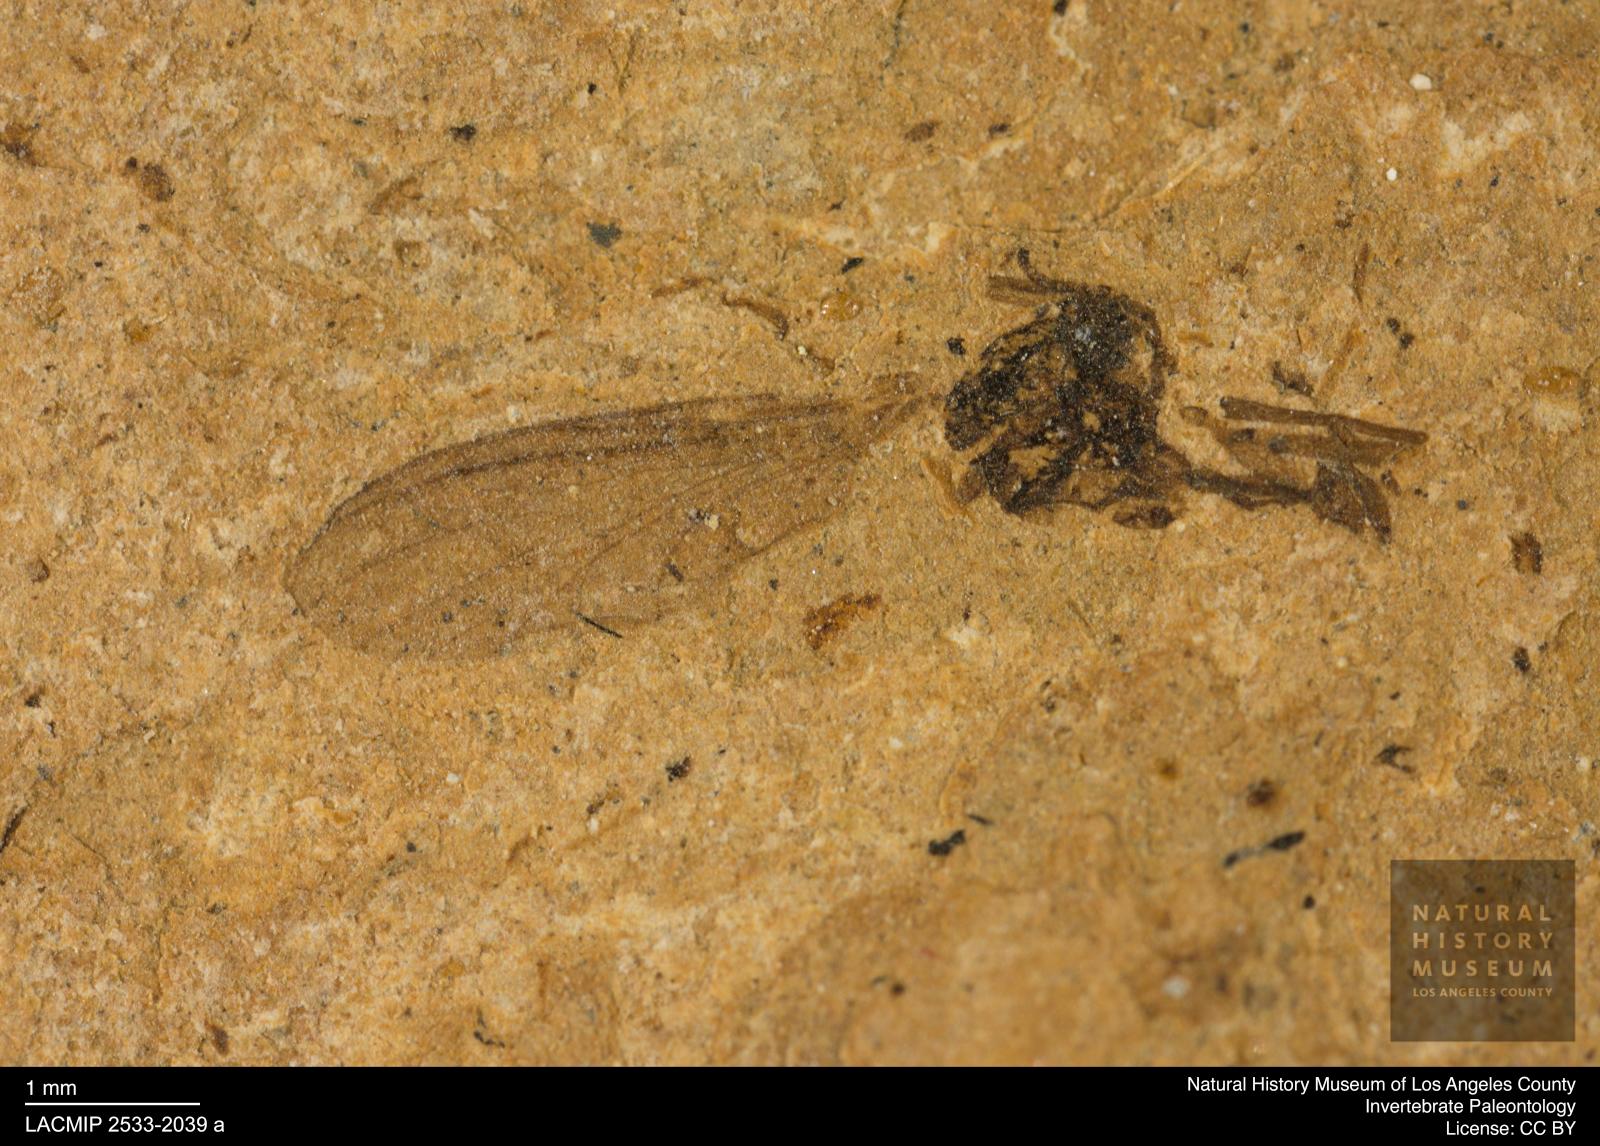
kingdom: Animalia
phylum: Arthropoda
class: Insecta
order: Diptera
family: Sciaridae
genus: Sciara
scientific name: Sciara heydeni
